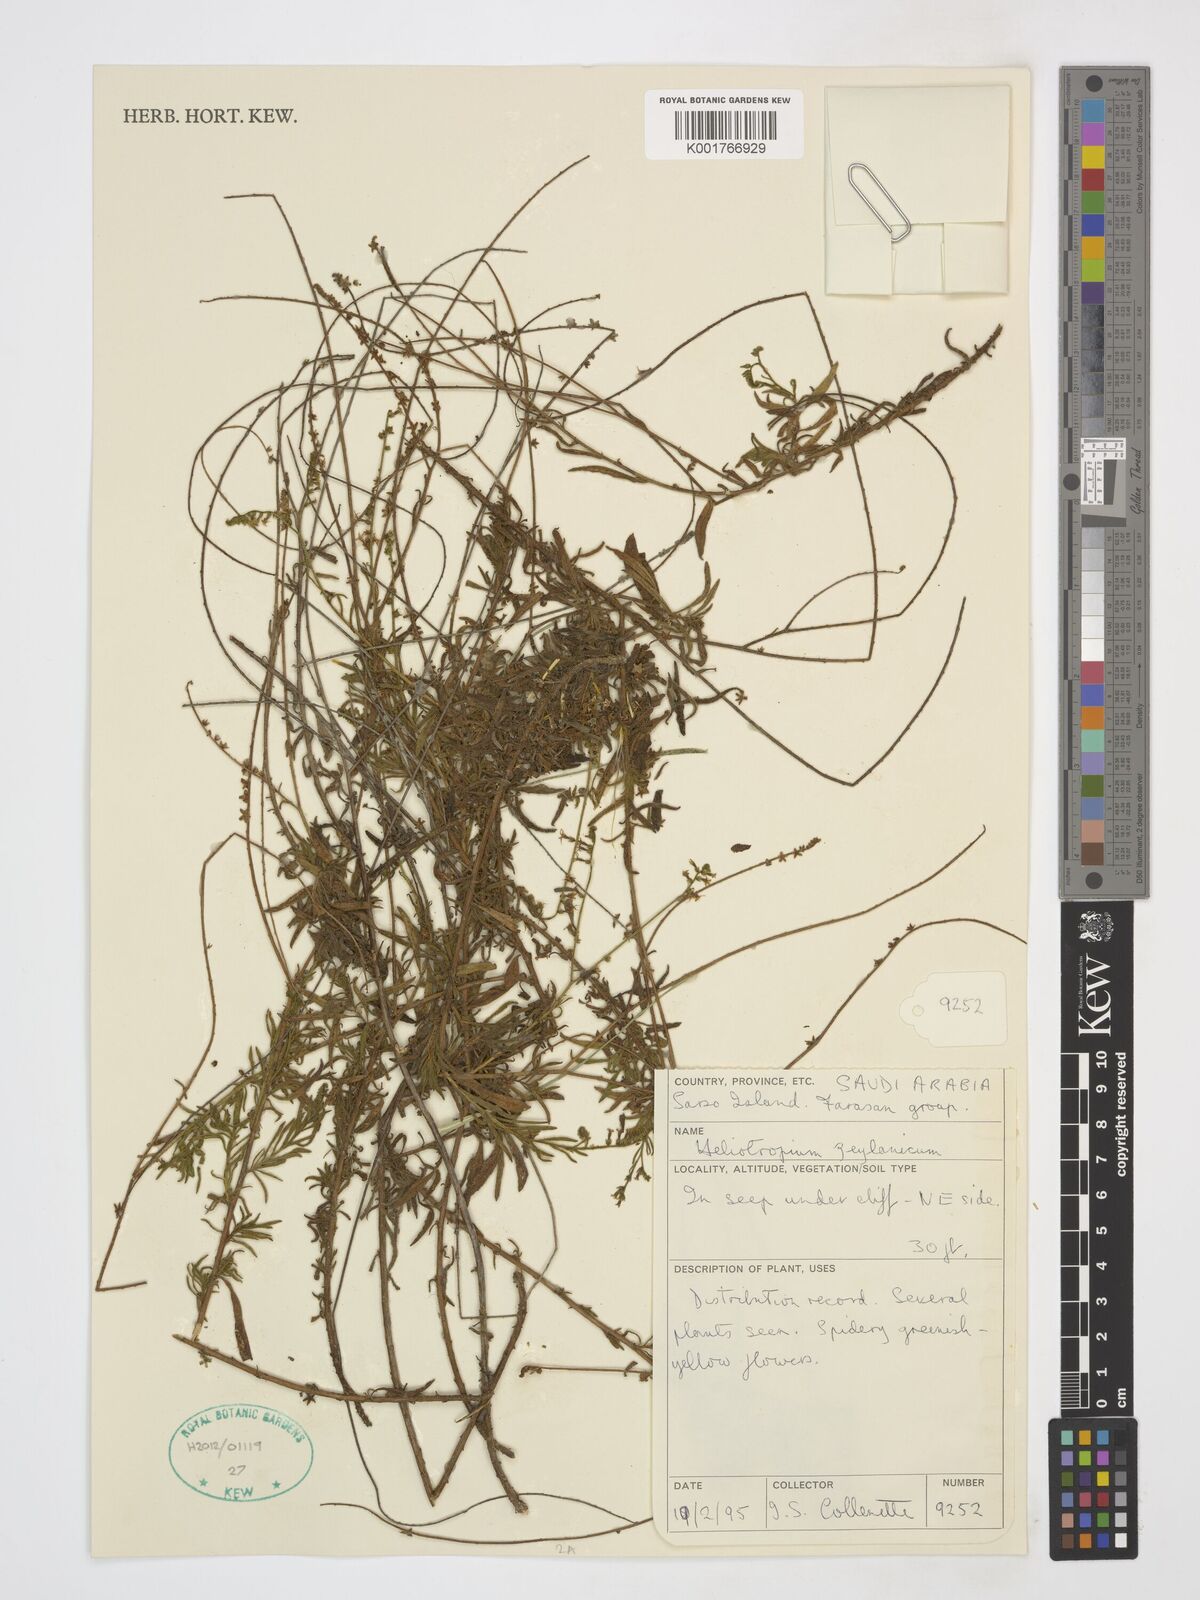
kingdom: Plantae
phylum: Tracheophyta
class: Magnoliopsida
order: Boraginales
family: Heliotropiaceae
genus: Heliotropium
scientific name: Heliotropium zeylanicum
